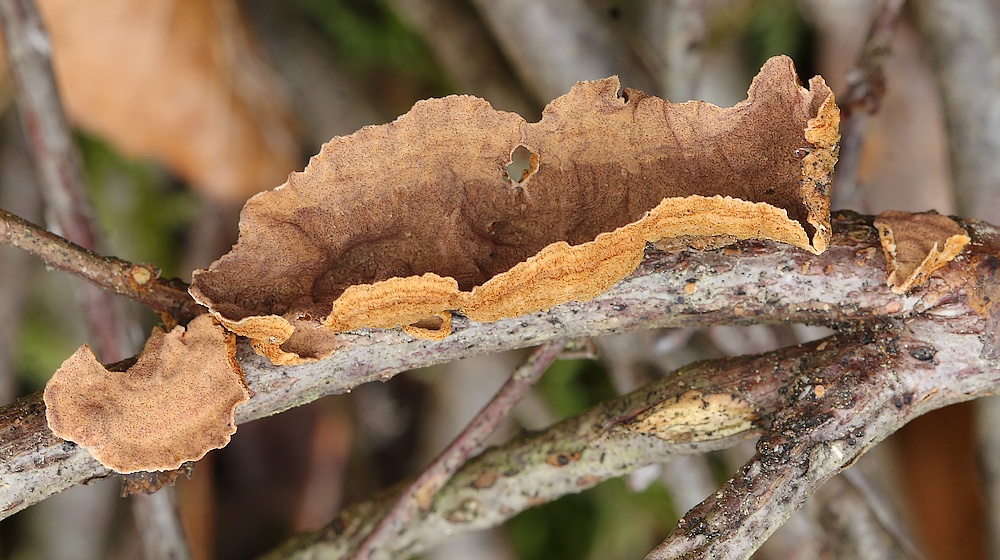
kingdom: Fungi
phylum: Basidiomycota
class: Agaricomycetes
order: Hymenochaetales
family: Hymenochaetaceae
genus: Hydnoporia
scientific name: Hydnoporia tabacina
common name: tobaksbrun ruslædersvamp
